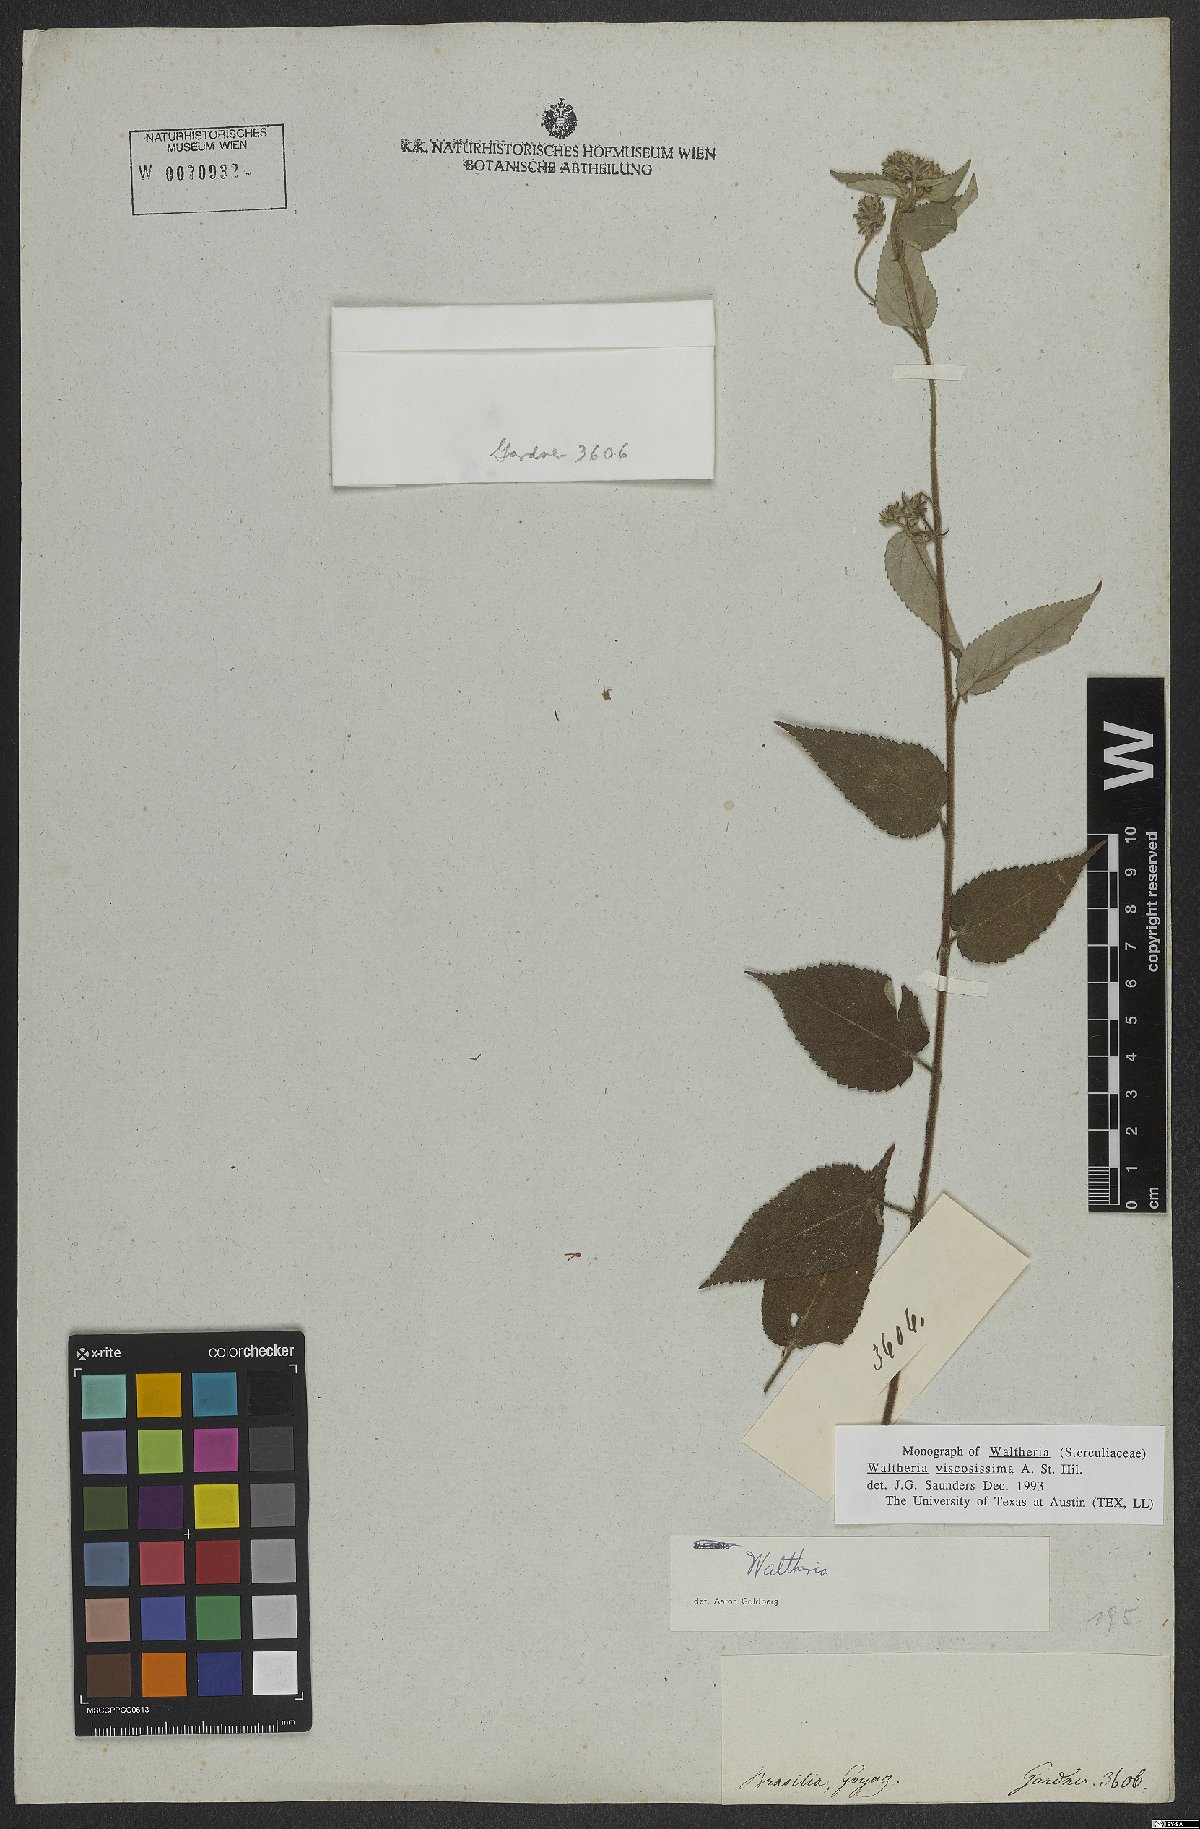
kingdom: Plantae
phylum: Tracheophyta
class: Magnoliopsida
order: Malvales
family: Malvaceae
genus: Waltheria
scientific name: Waltheria viscosissima
